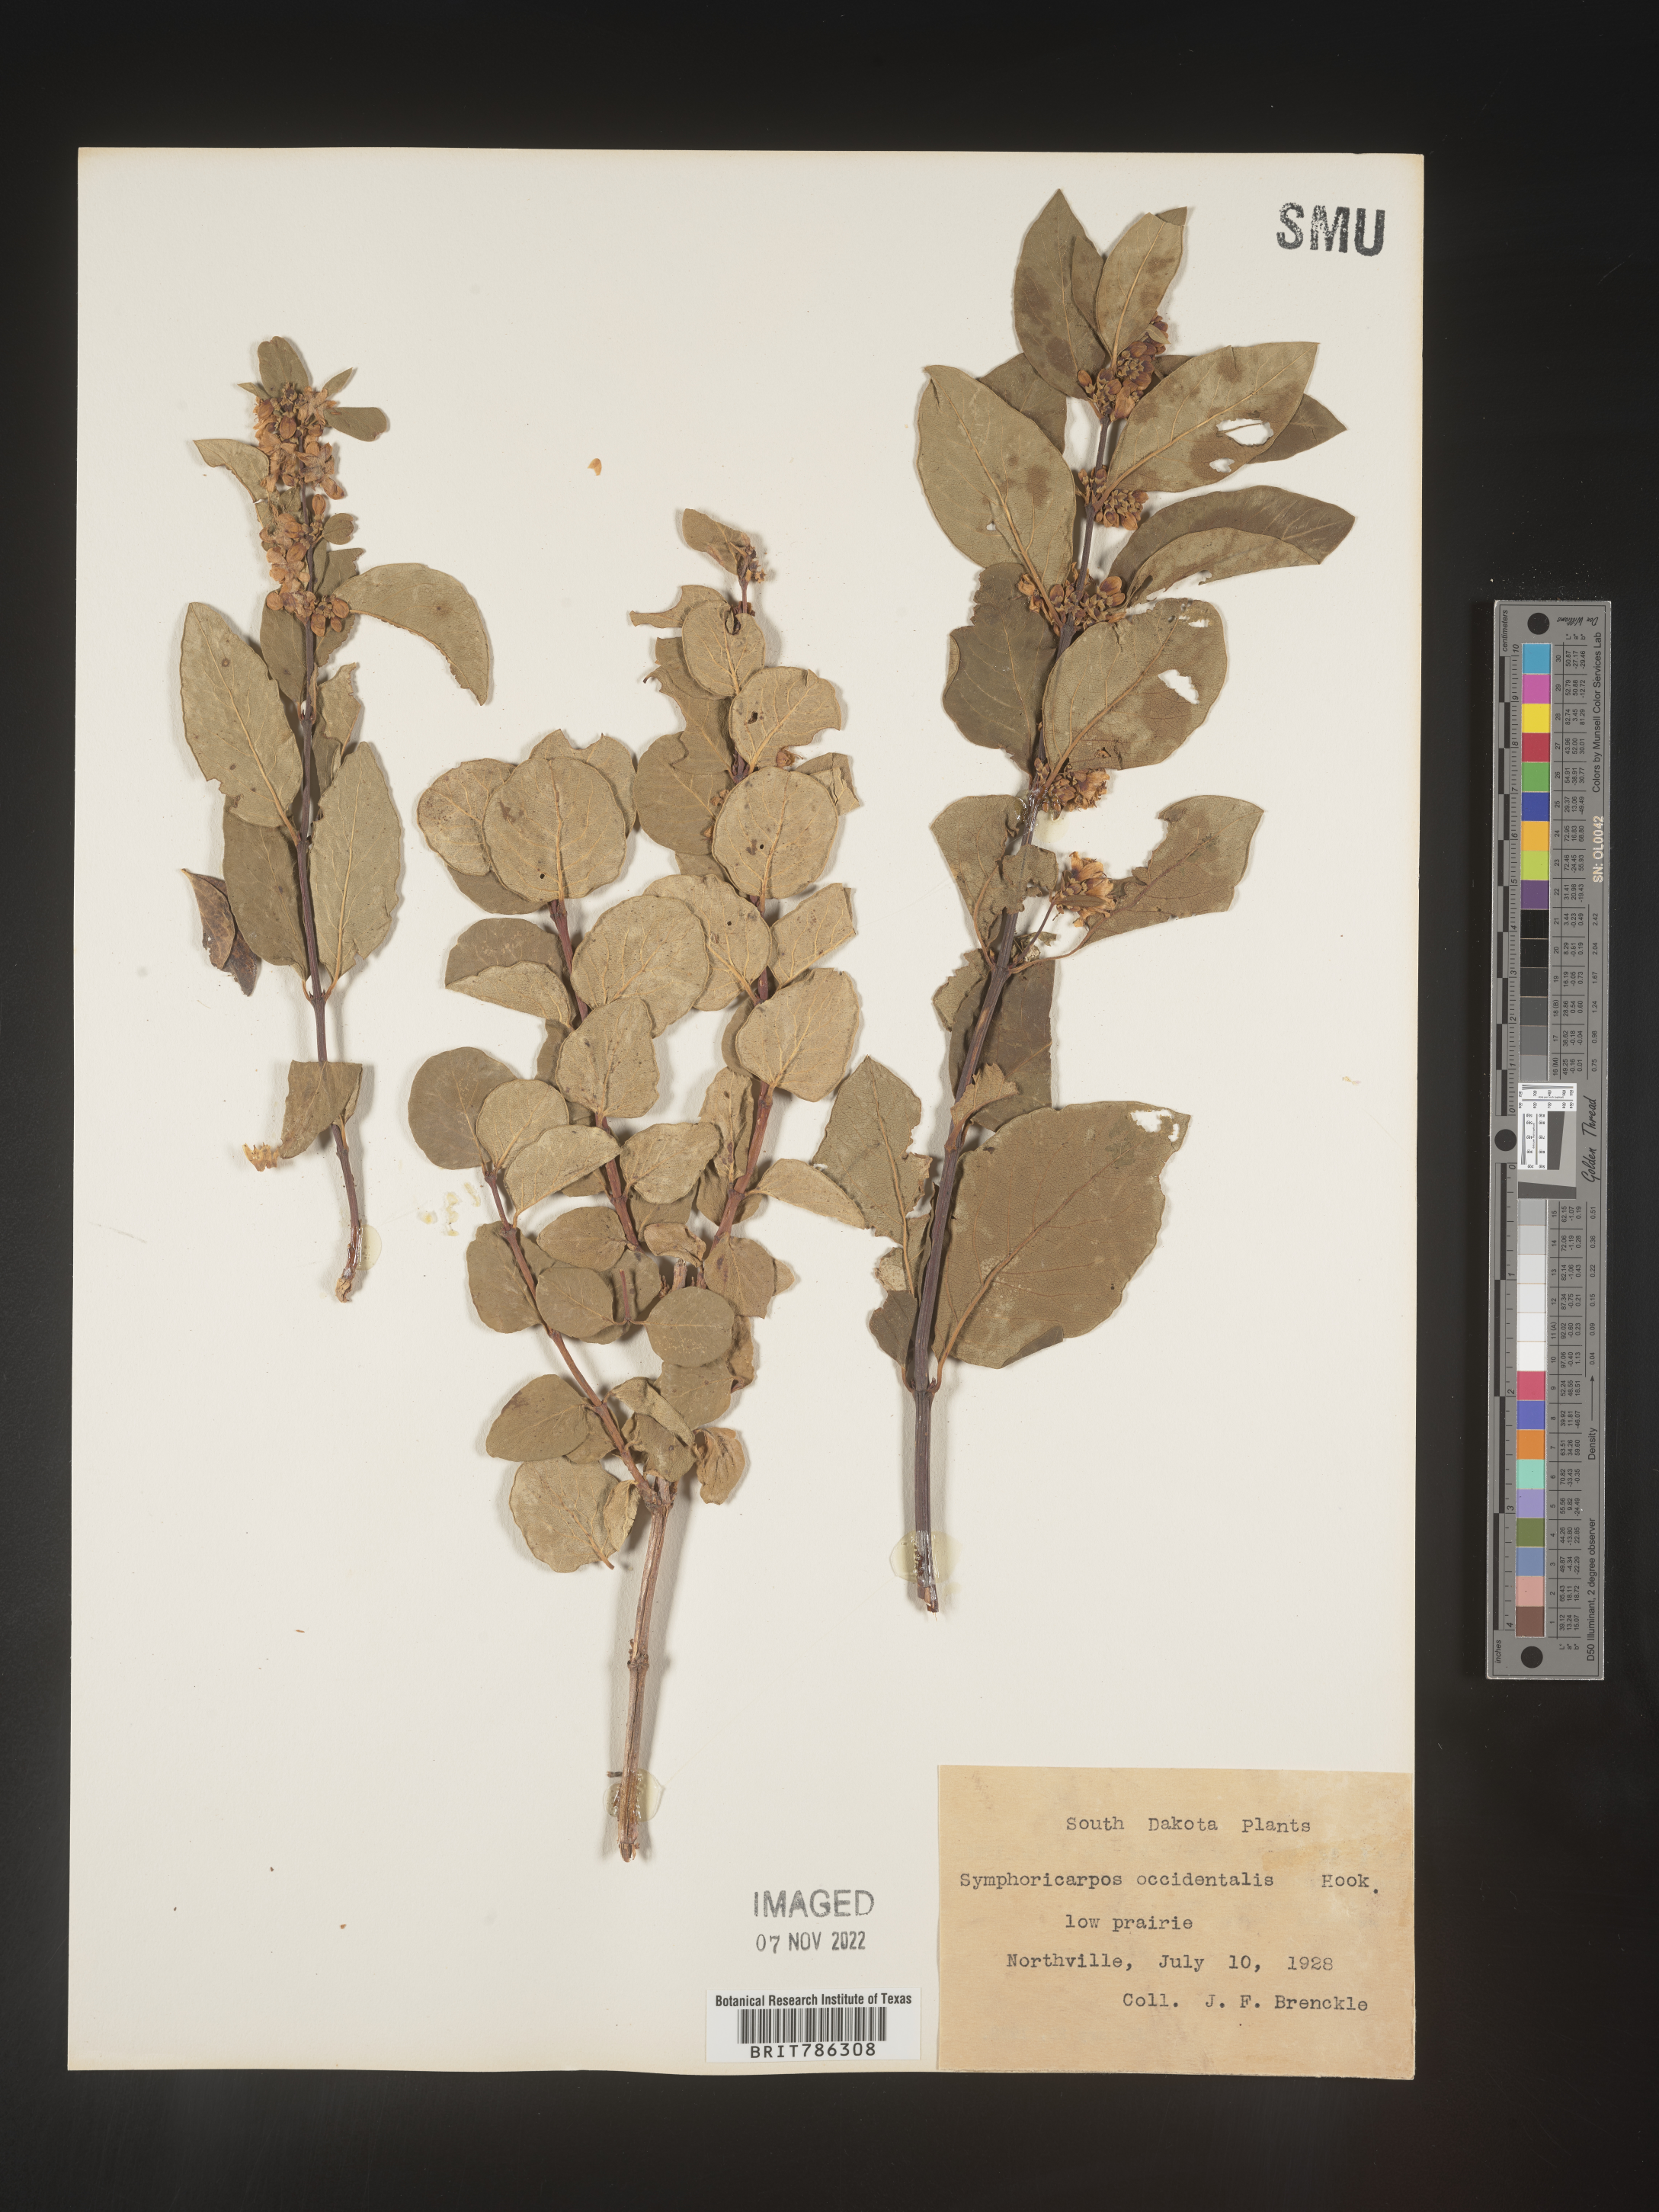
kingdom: Plantae
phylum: Tracheophyta
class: Magnoliopsida
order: Dipsacales
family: Caprifoliaceae
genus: Symphoricarpos
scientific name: Symphoricarpos occidentalis
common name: Wolfberry
